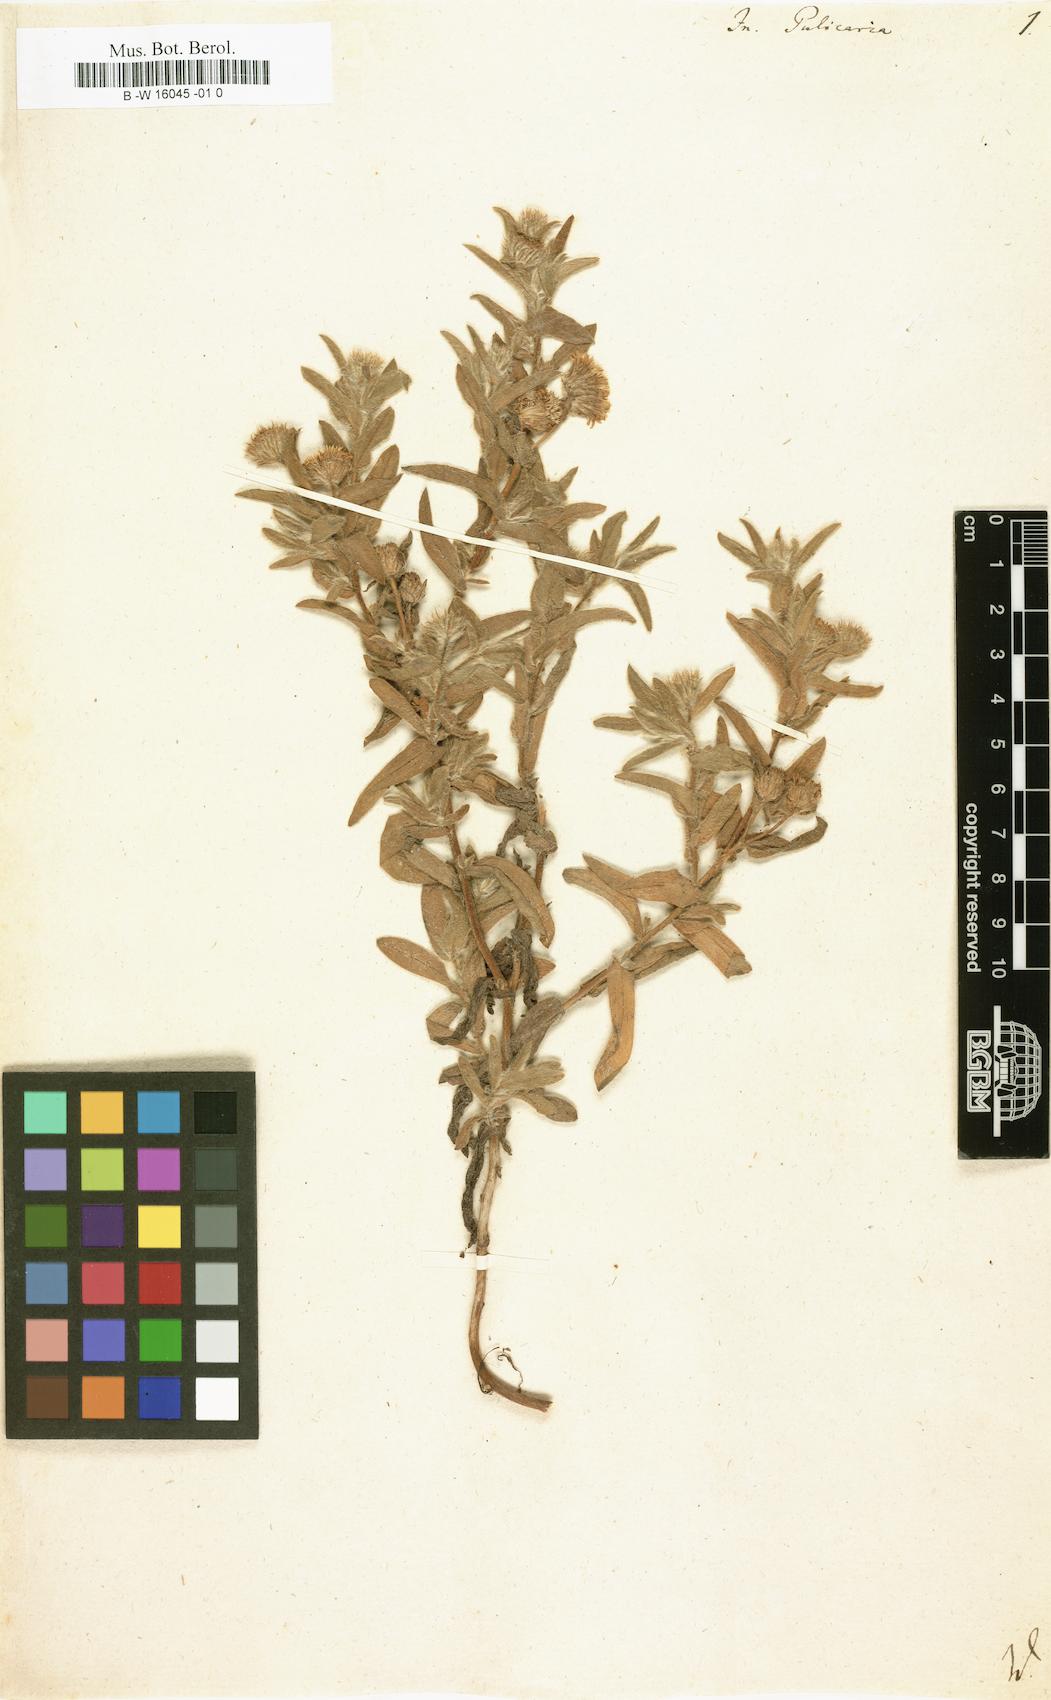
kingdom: Plantae
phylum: Tracheophyta
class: Magnoliopsida
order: Asterales
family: Asteraceae
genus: Inula
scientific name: Inula pulicaria
